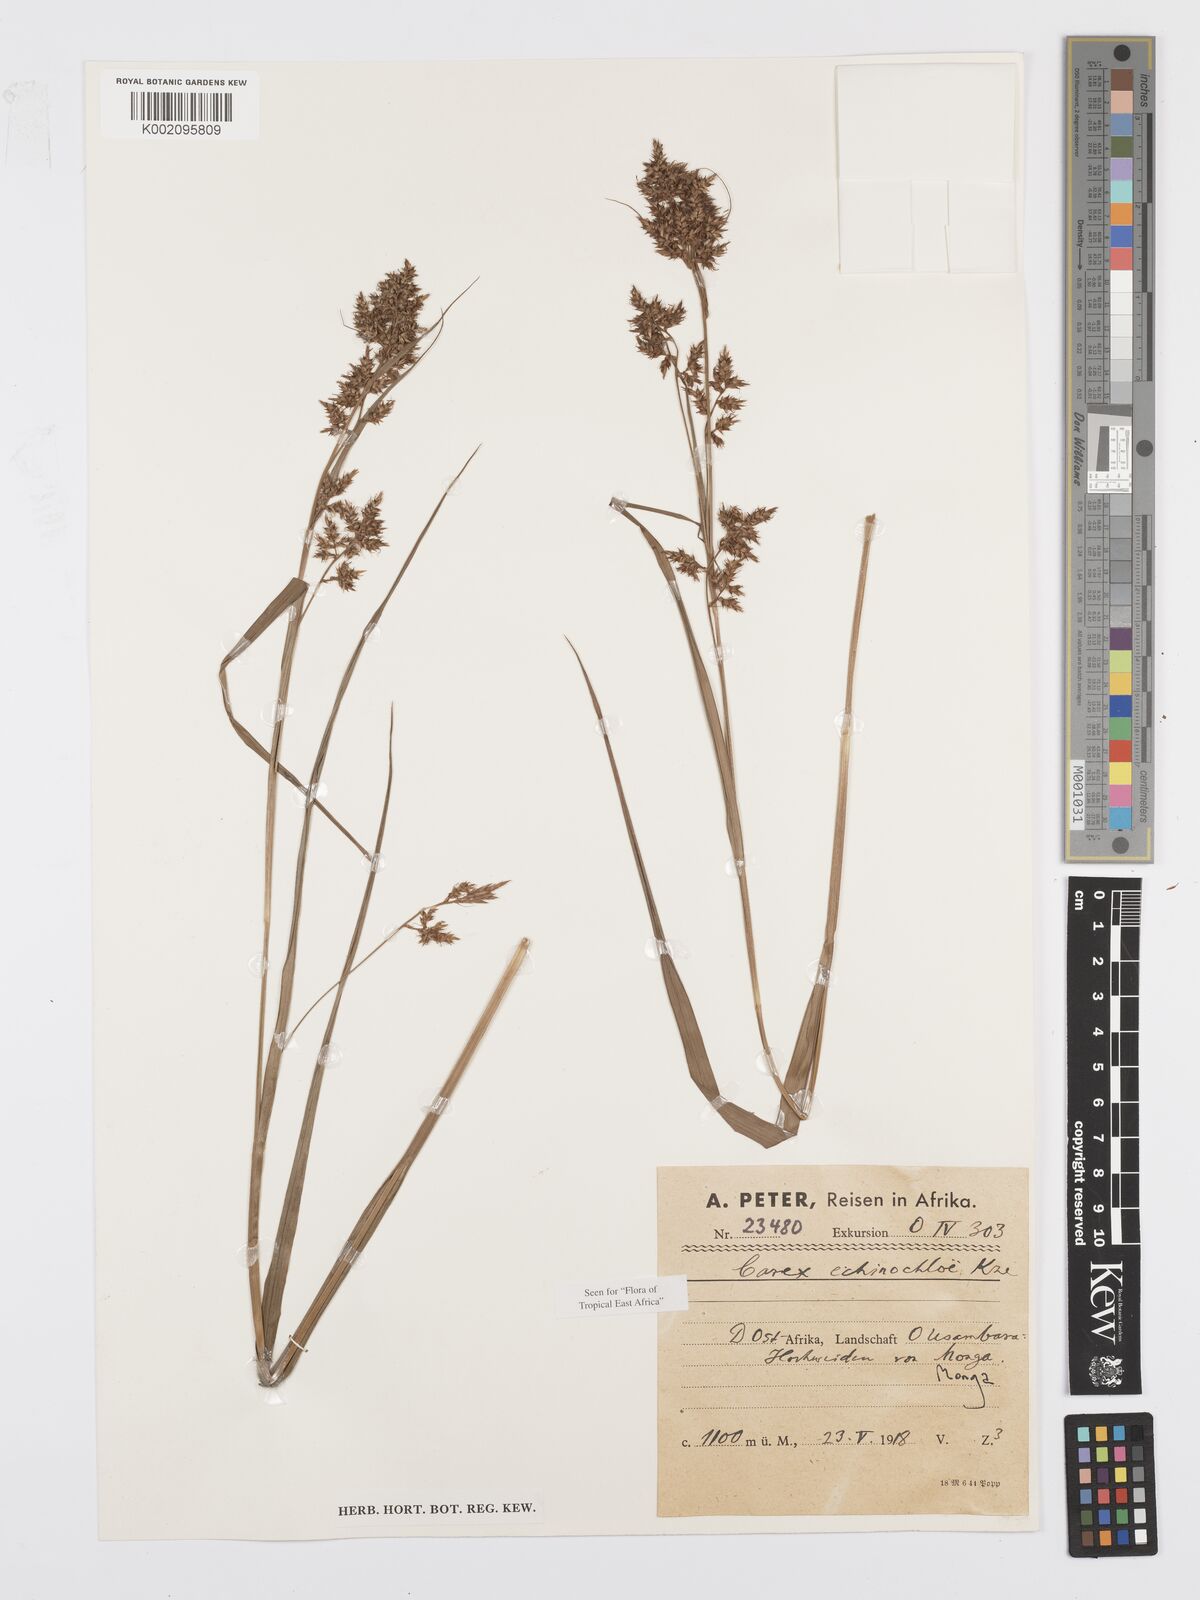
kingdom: Plantae
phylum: Tracheophyta
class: Liliopsida
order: Poales
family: Cyperaceae
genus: Carex
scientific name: Carex echinochloe
